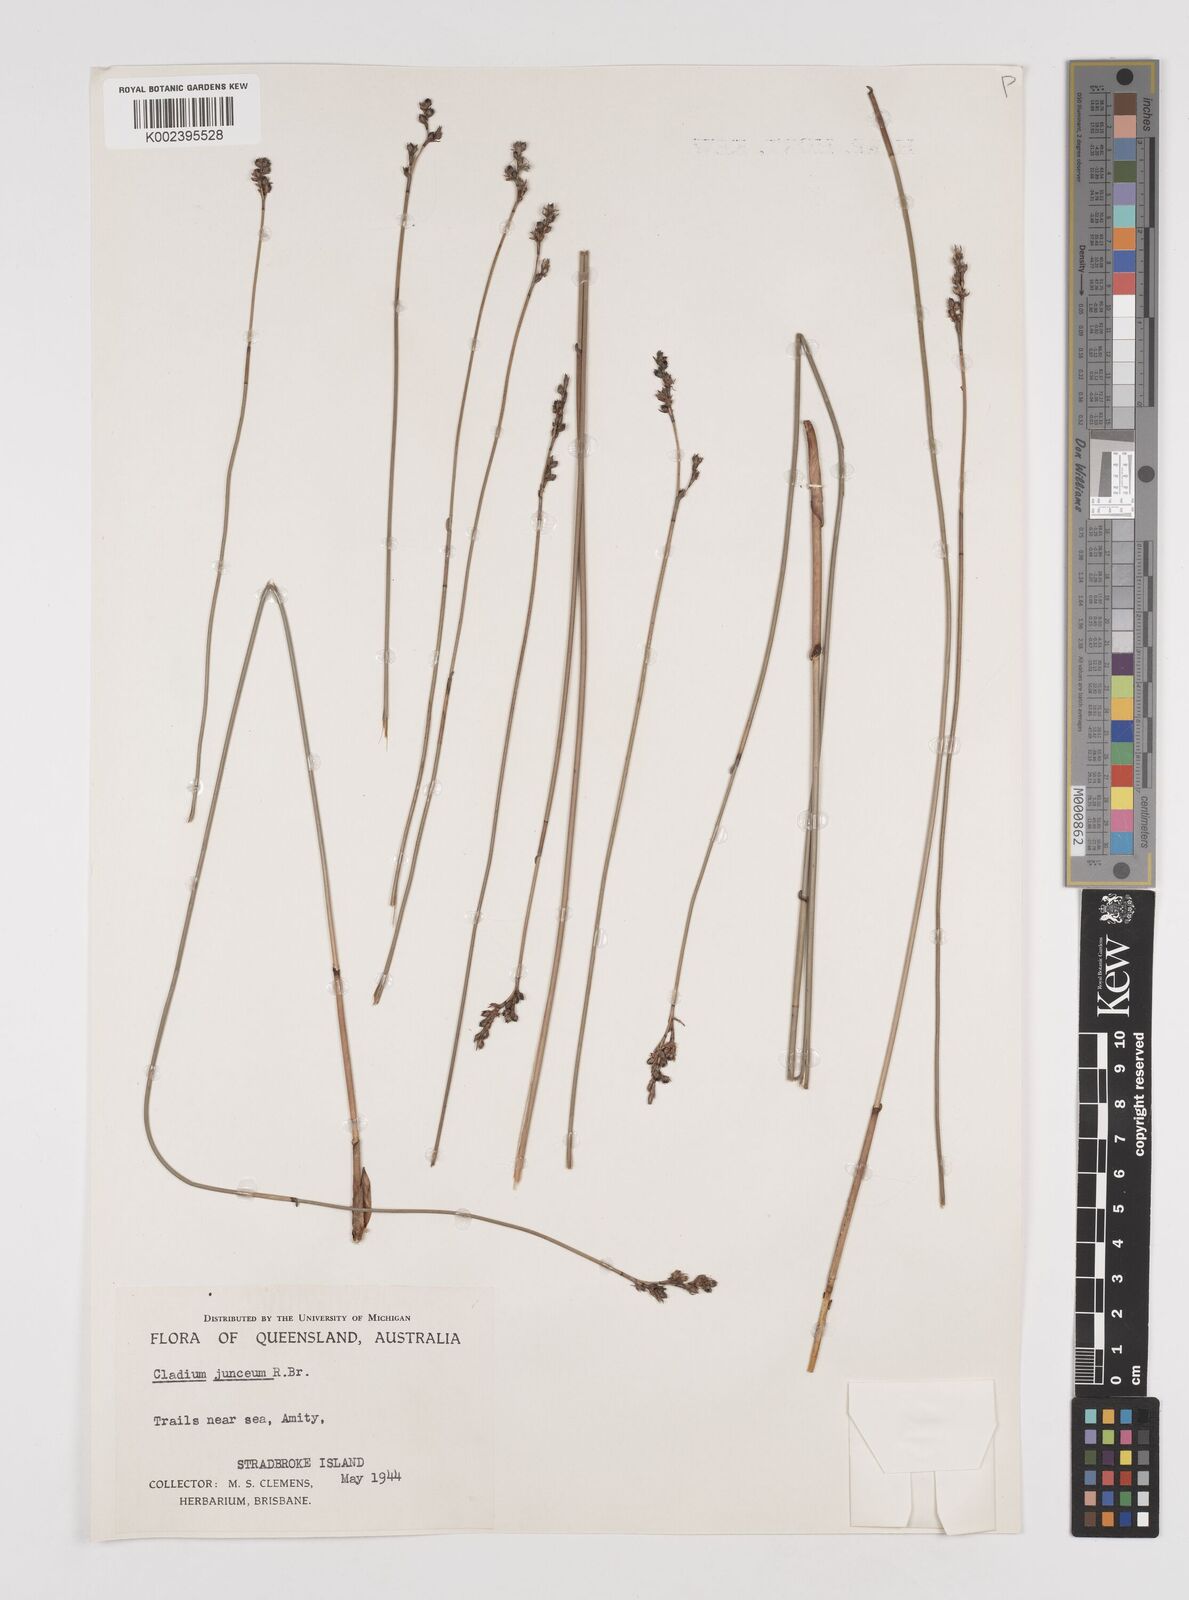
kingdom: Plantae
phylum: Tracheophyta
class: Liliopsida
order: Poales
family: Cyperaceae
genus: Machaerina
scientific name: Machaerina juncea
